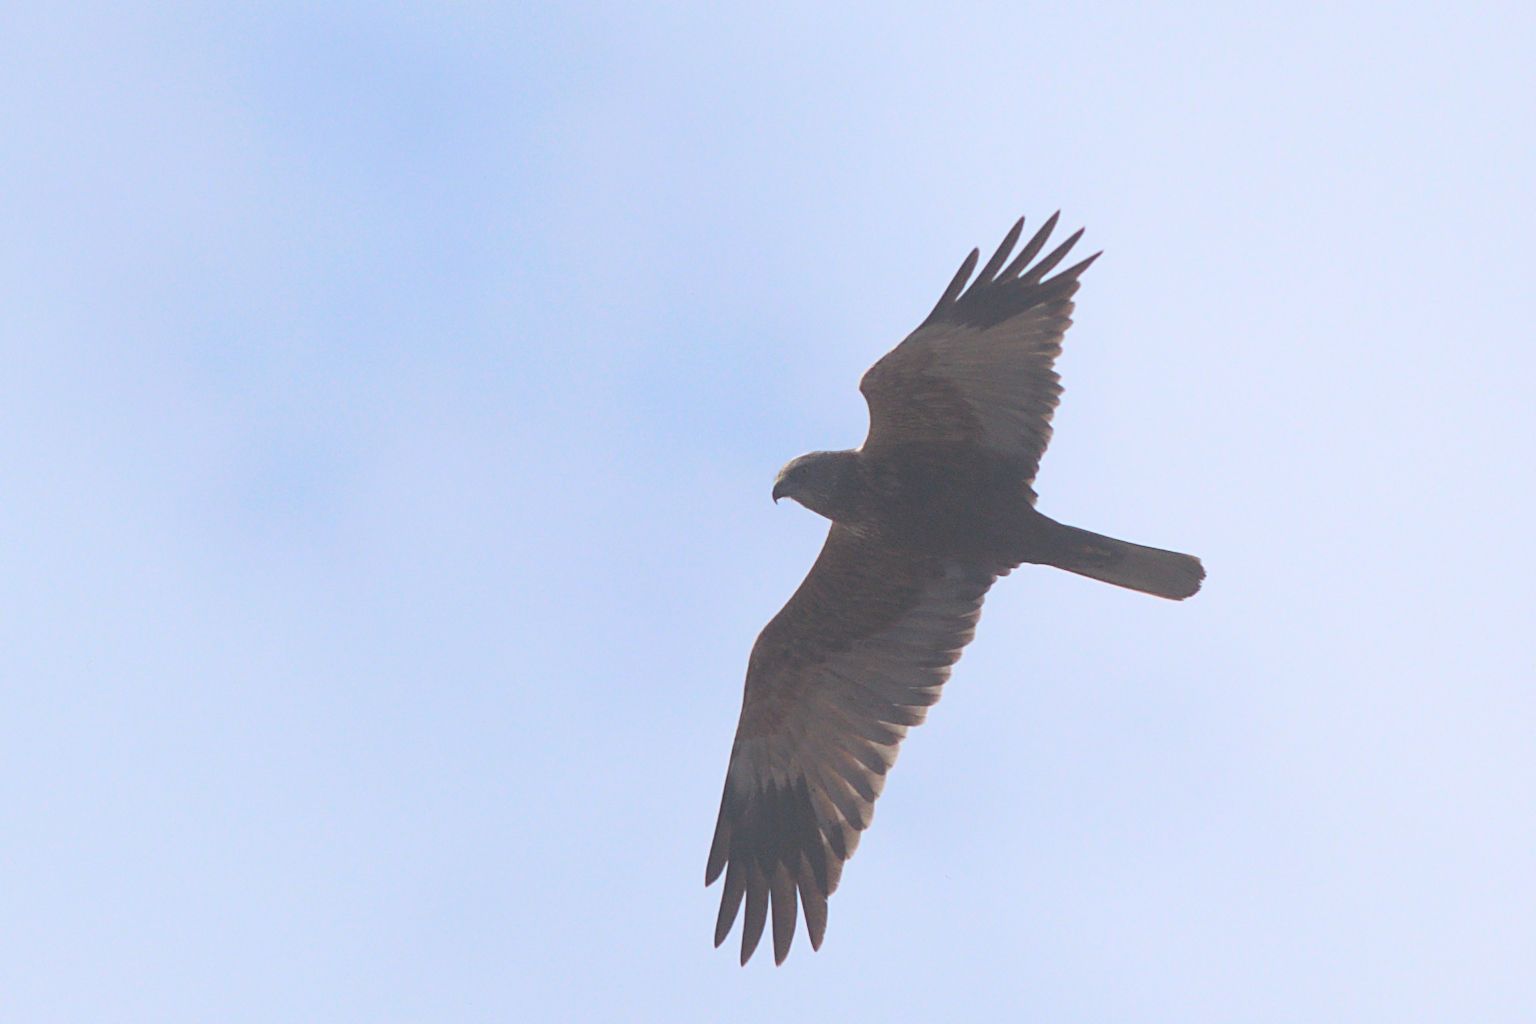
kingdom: Animalia
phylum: Chordata
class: Aves
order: Accipitriformes
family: Accipitridae
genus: Circus
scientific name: Circus aeruginosus
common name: Western marsh harrier
